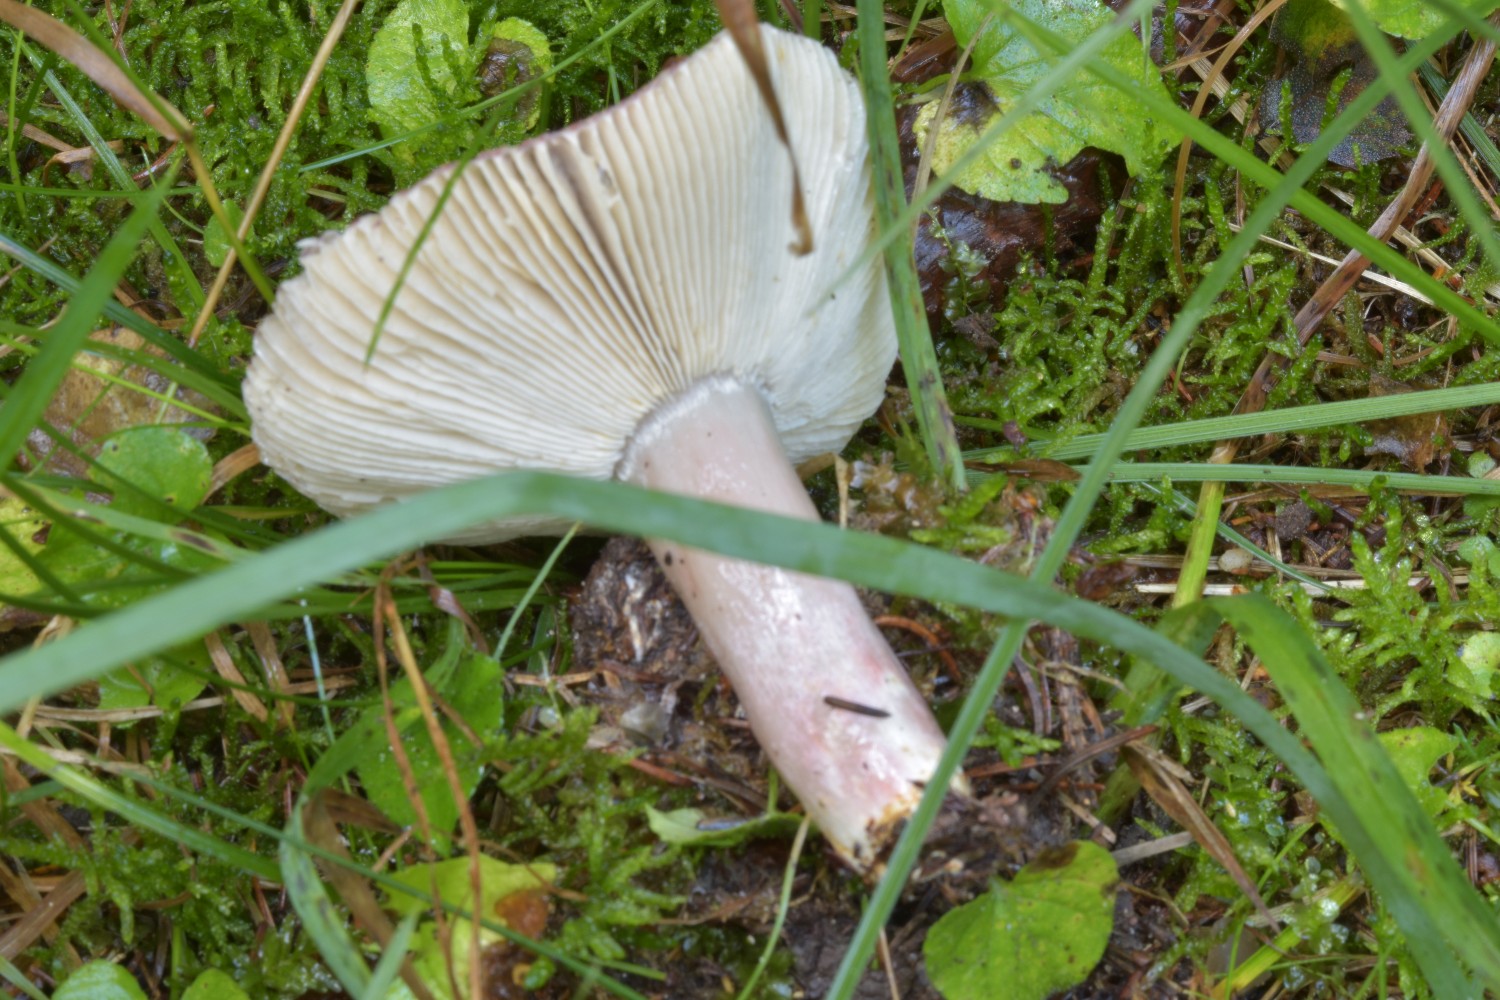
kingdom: Fungi
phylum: Basidiomycota
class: Agaricomycetes
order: Russulales
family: Russulaceae
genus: Russula
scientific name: Russula queletii
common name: Quélets skørhat
